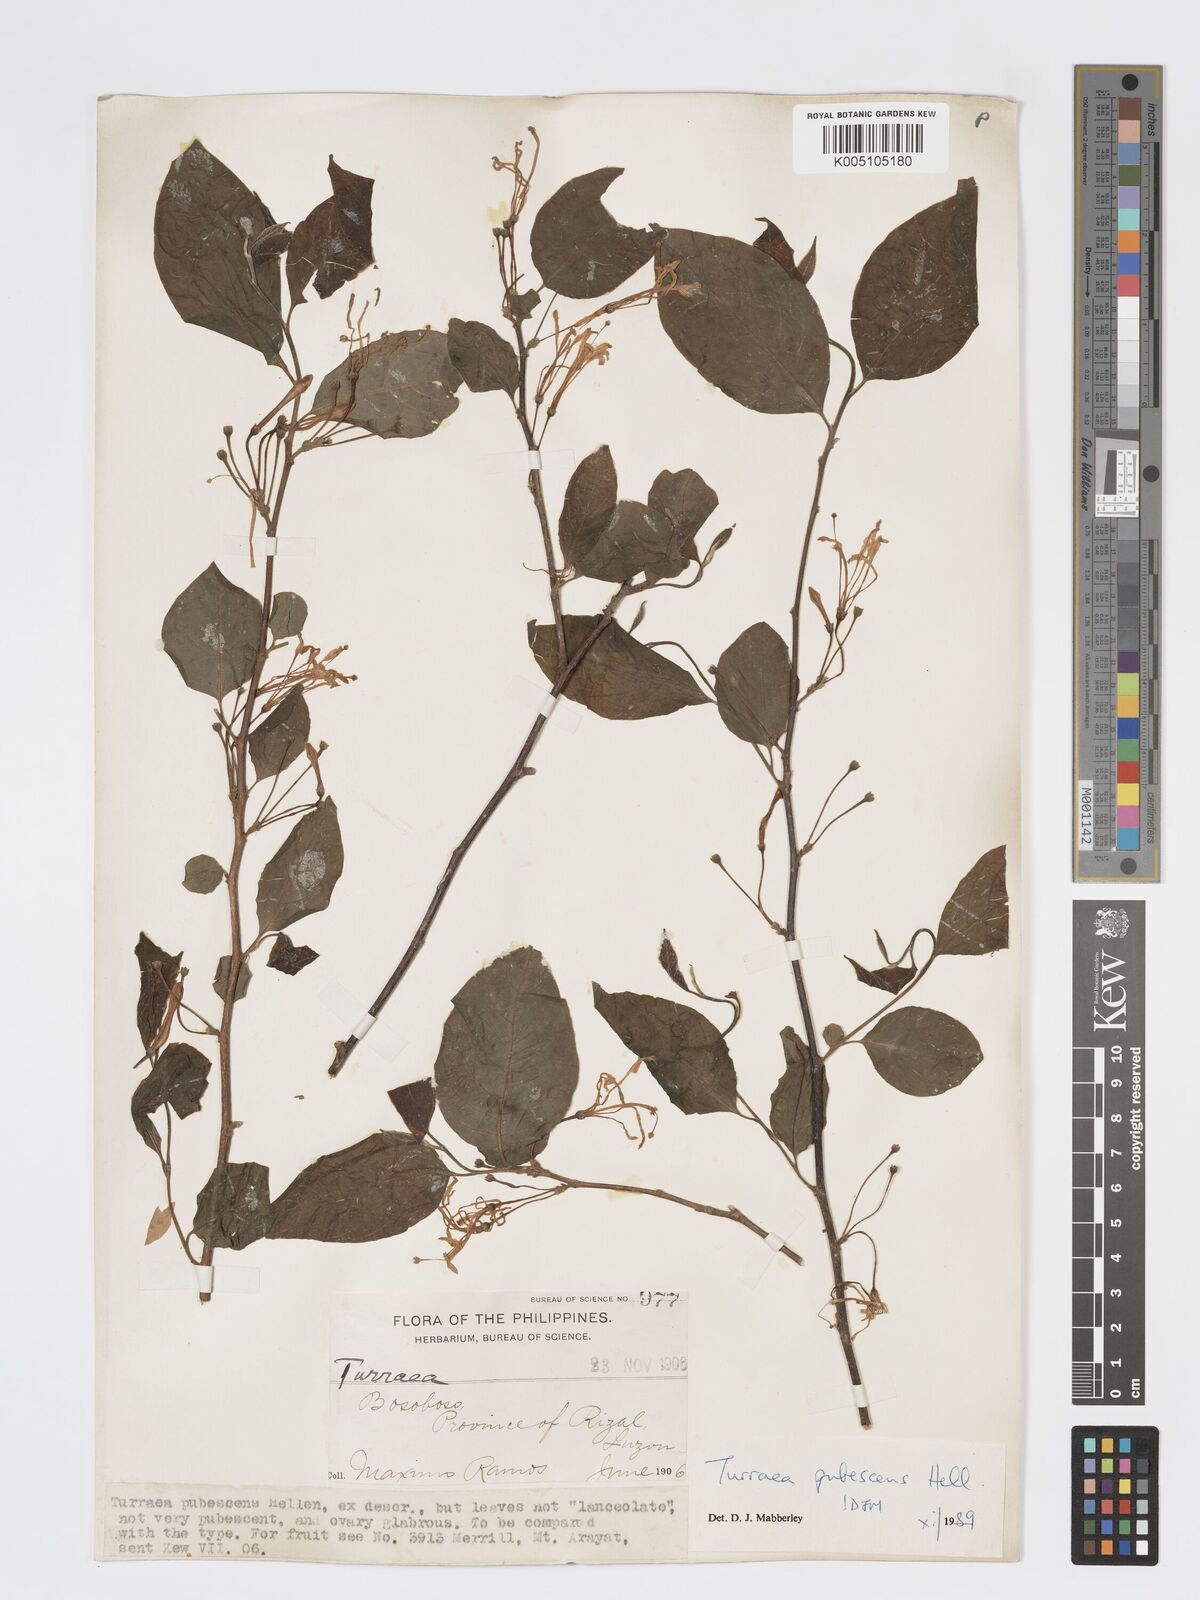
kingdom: Plantae
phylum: Tracheophyta
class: Magnoliopsida
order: Sapindales
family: Meliaceae
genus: Turraea
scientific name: Turraea
